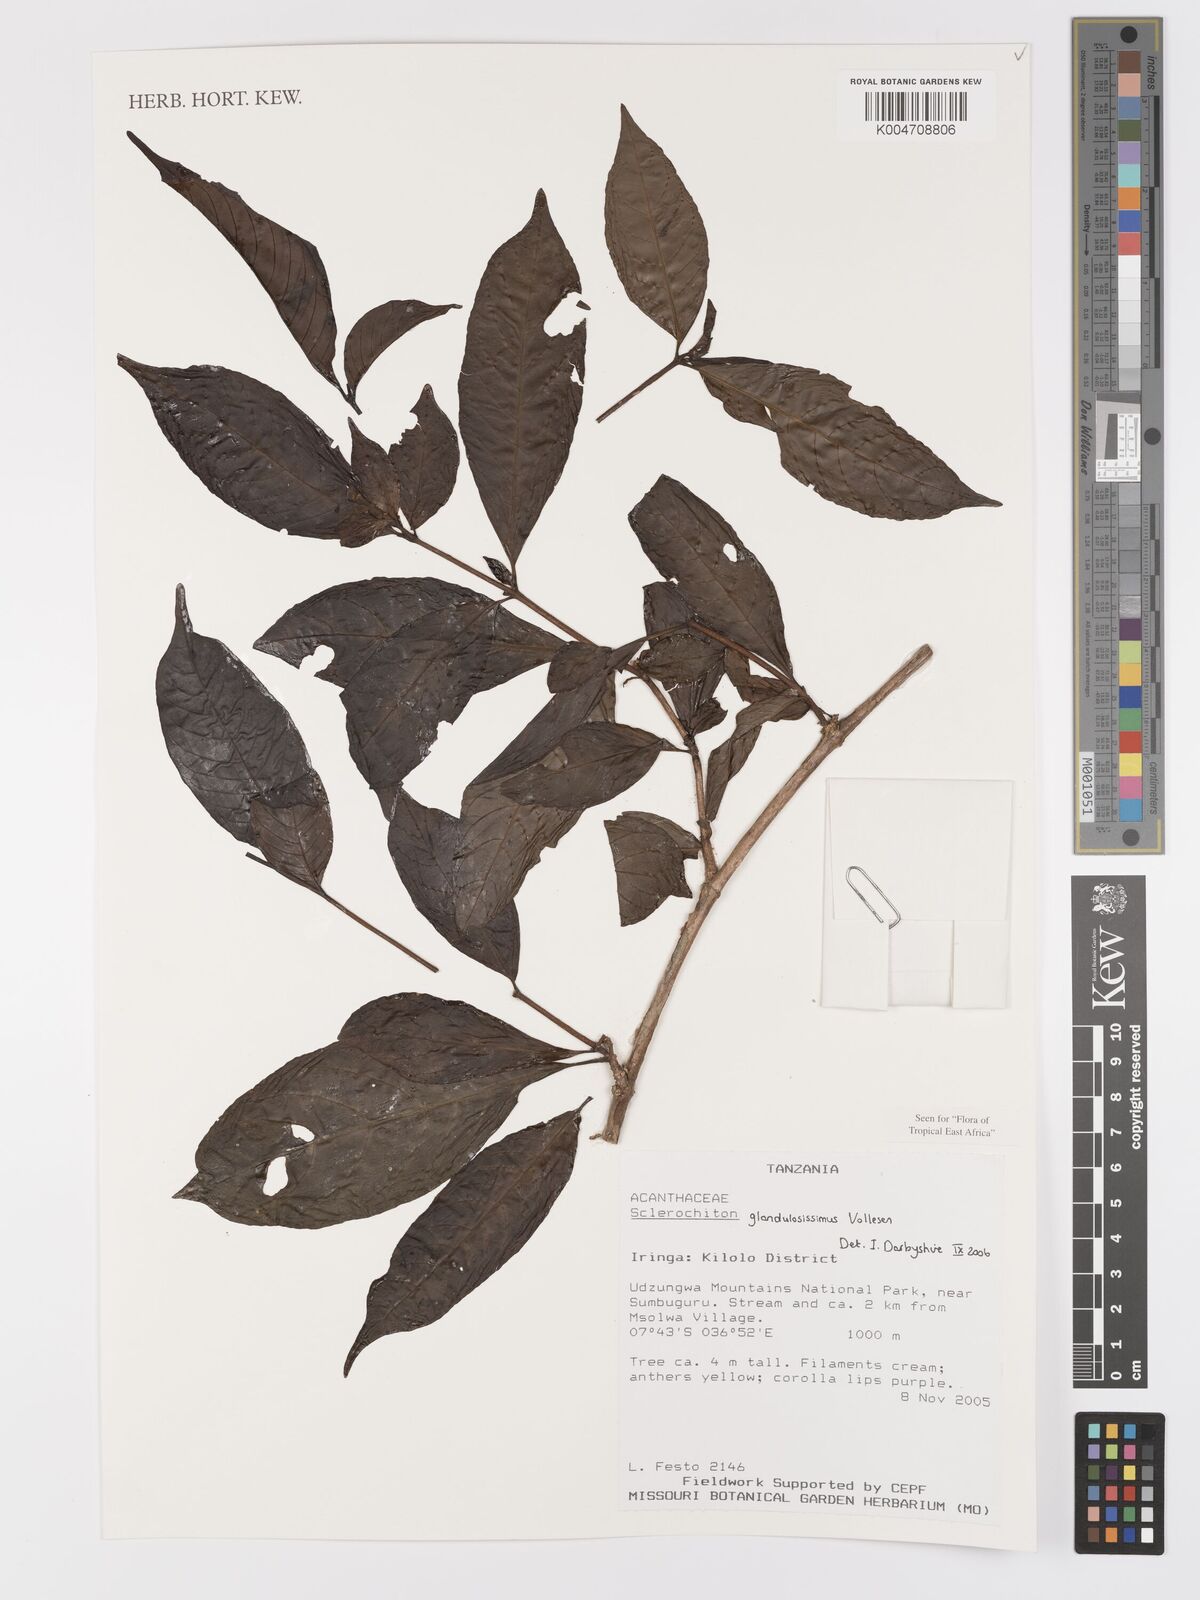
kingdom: Plantae
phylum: Tracheophyta
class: Magnoliopsida
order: Lamiales
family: Acanthaceae
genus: Sclerochiton
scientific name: Sclerochiton glandulosissimus
